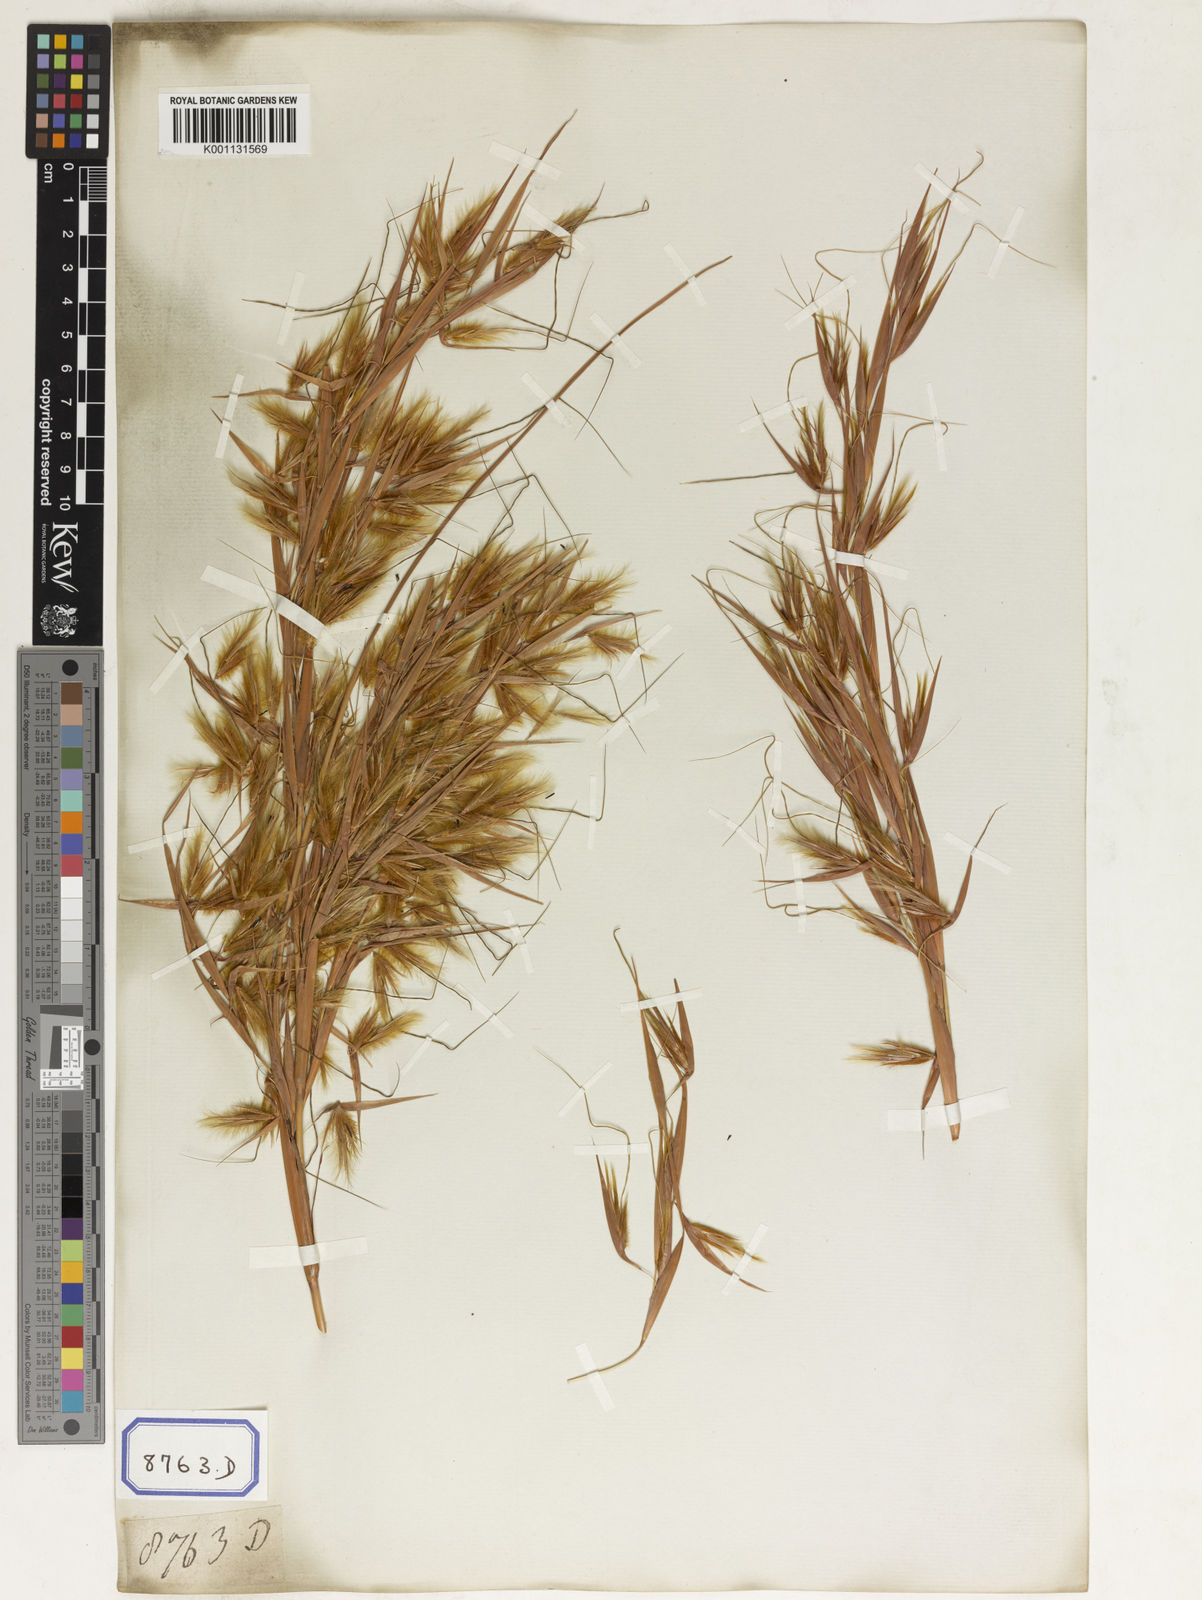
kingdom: Plantae
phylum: Tracheophyta
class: Liliopsida
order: Poales
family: Poaceae
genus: Themeda
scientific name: Themeda
